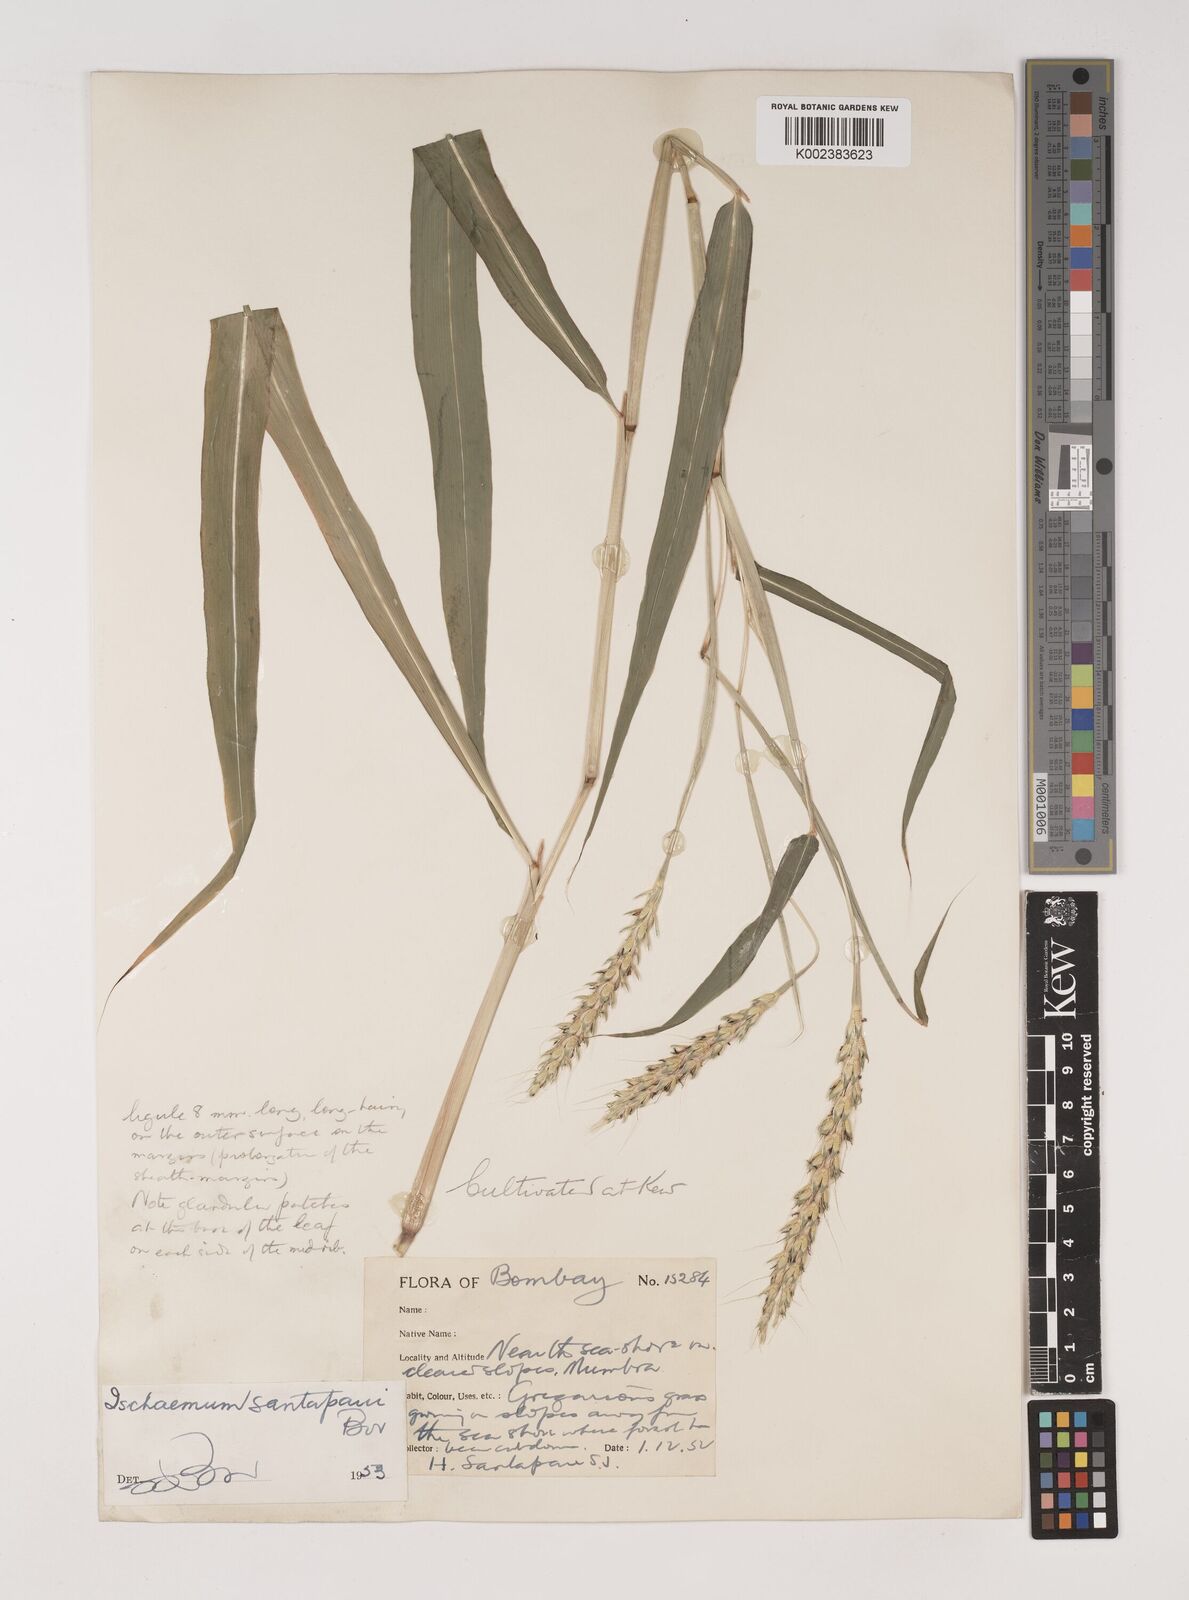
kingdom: Plantae
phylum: Tracheophyta
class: Liliopsida
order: Poales
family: Poaceae
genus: Ischaemum
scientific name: Ischaemum santapaui
